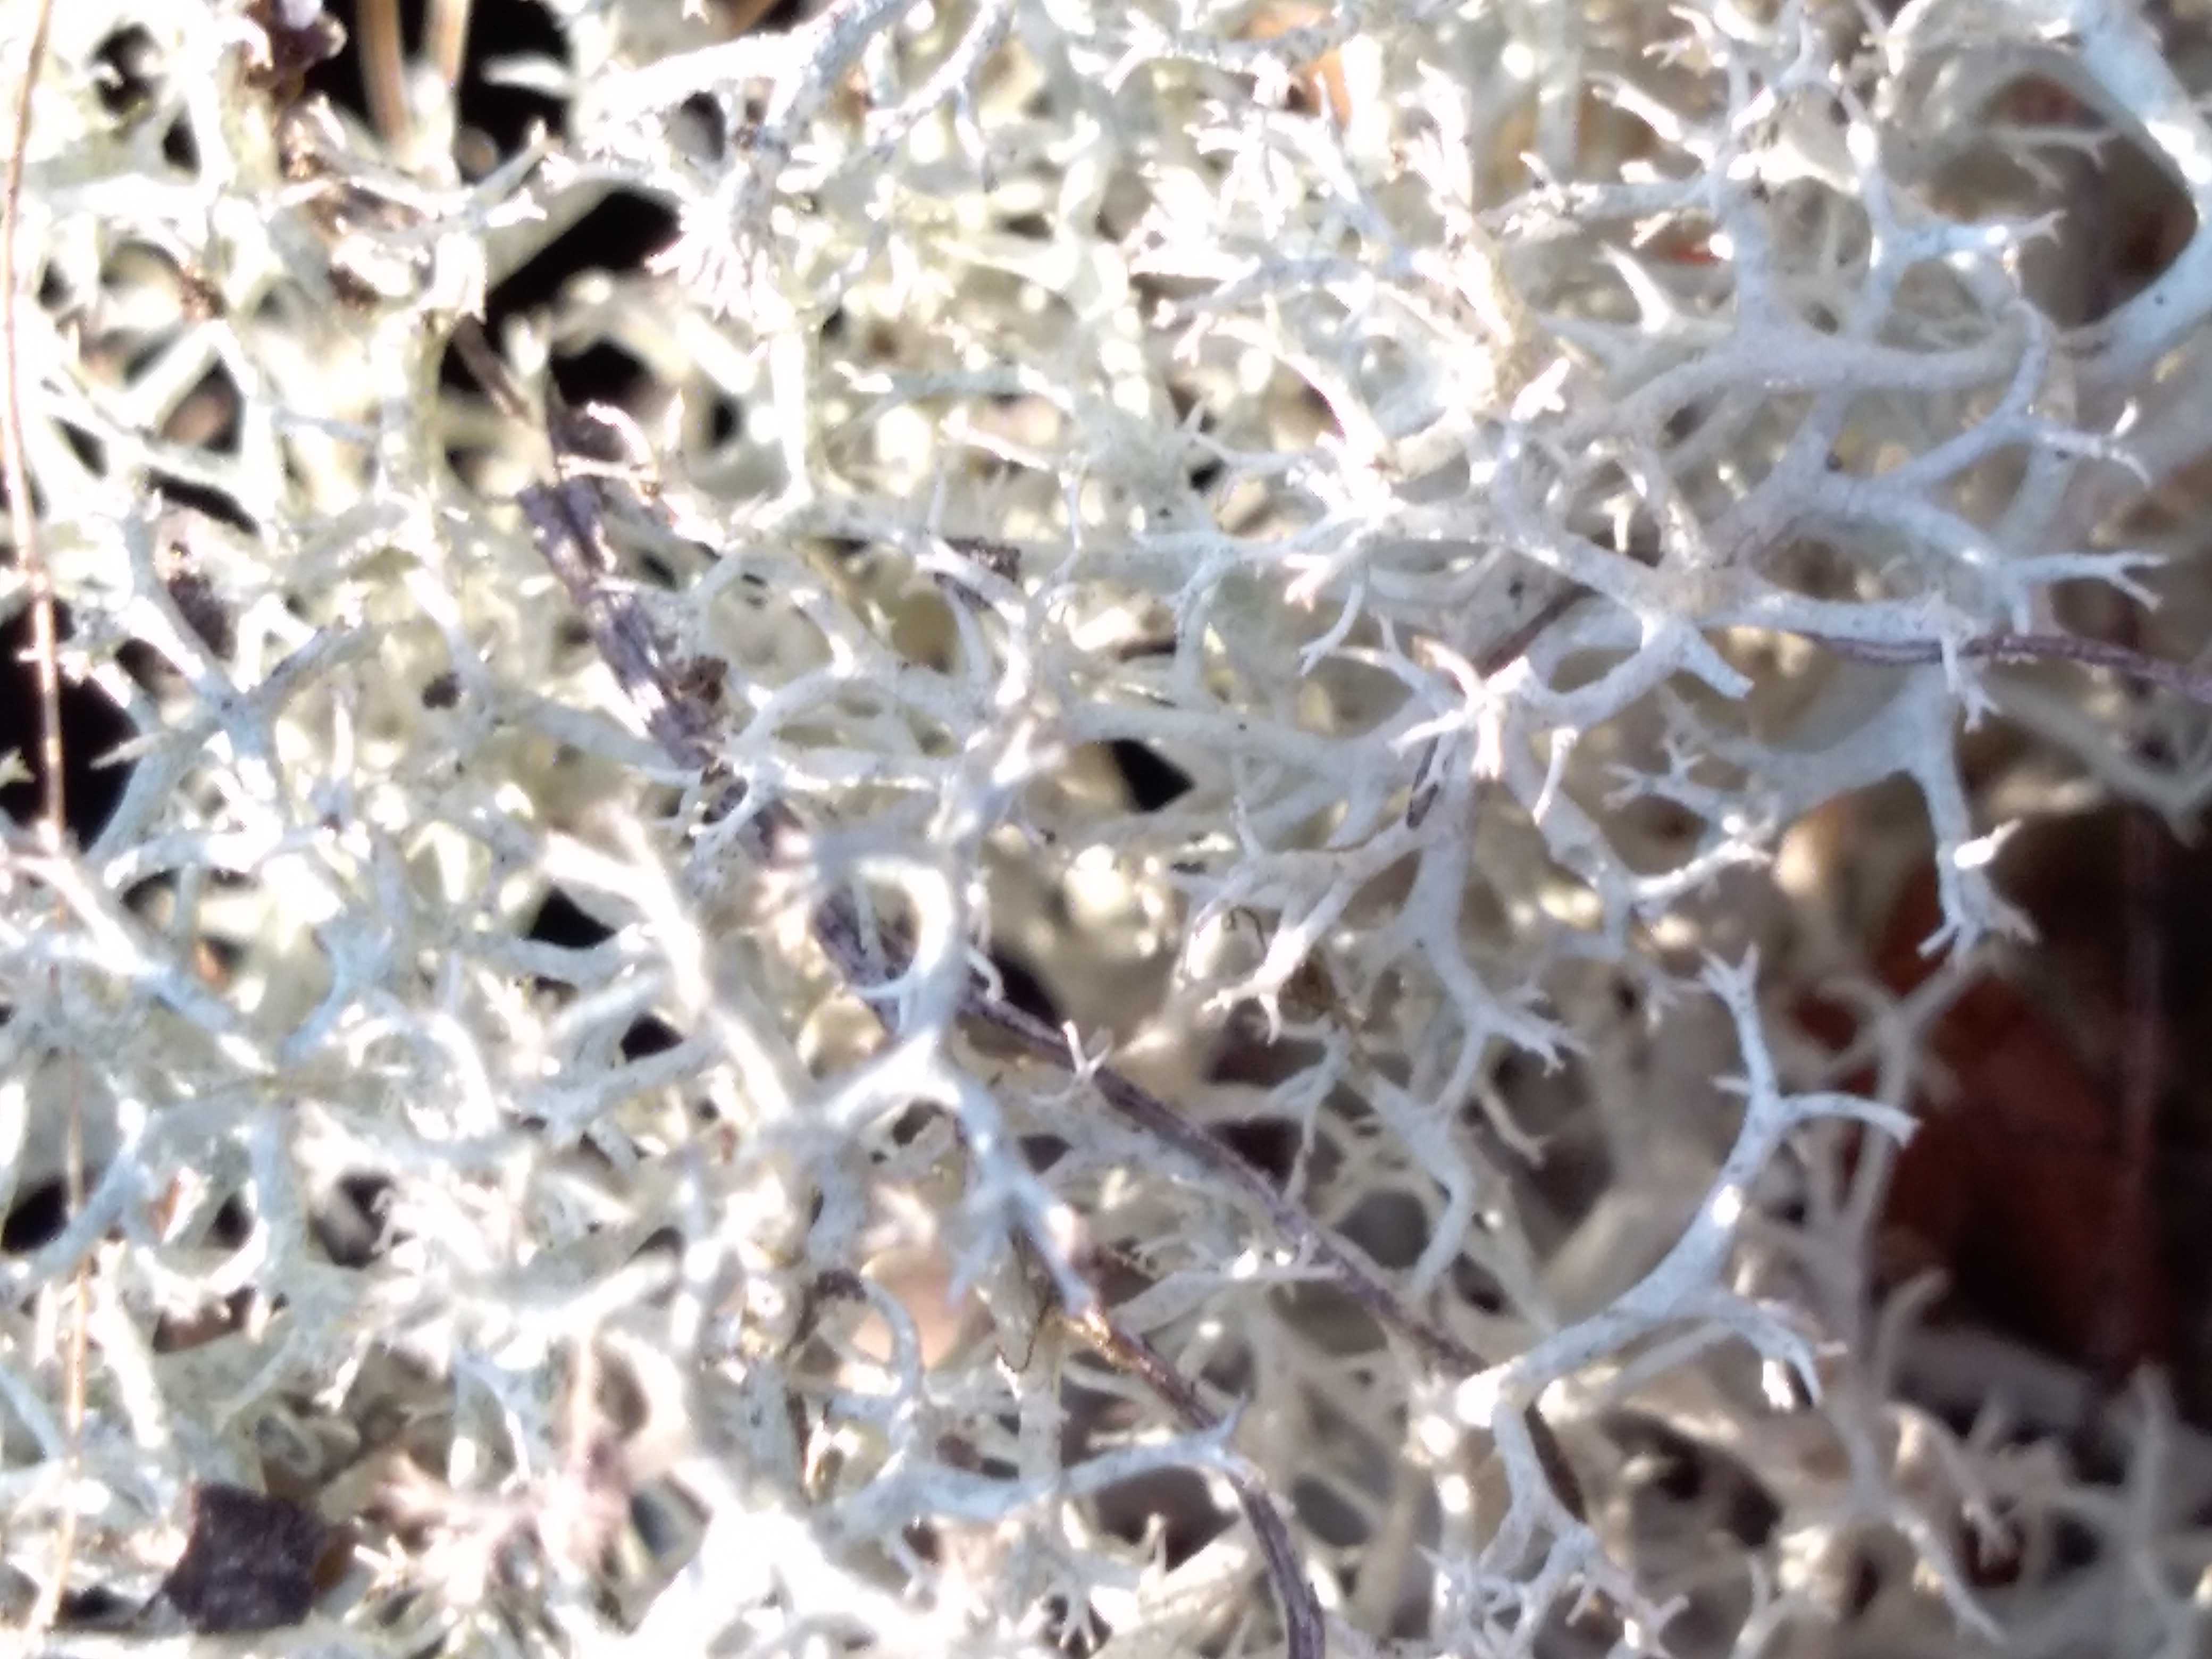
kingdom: Fungi
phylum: Ascomycota
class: Lecanoromycetes
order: Lecanorales
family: Cladoniaceae
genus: Cladonia
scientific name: Cladonia portentosa
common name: hede-rensdyrlav
